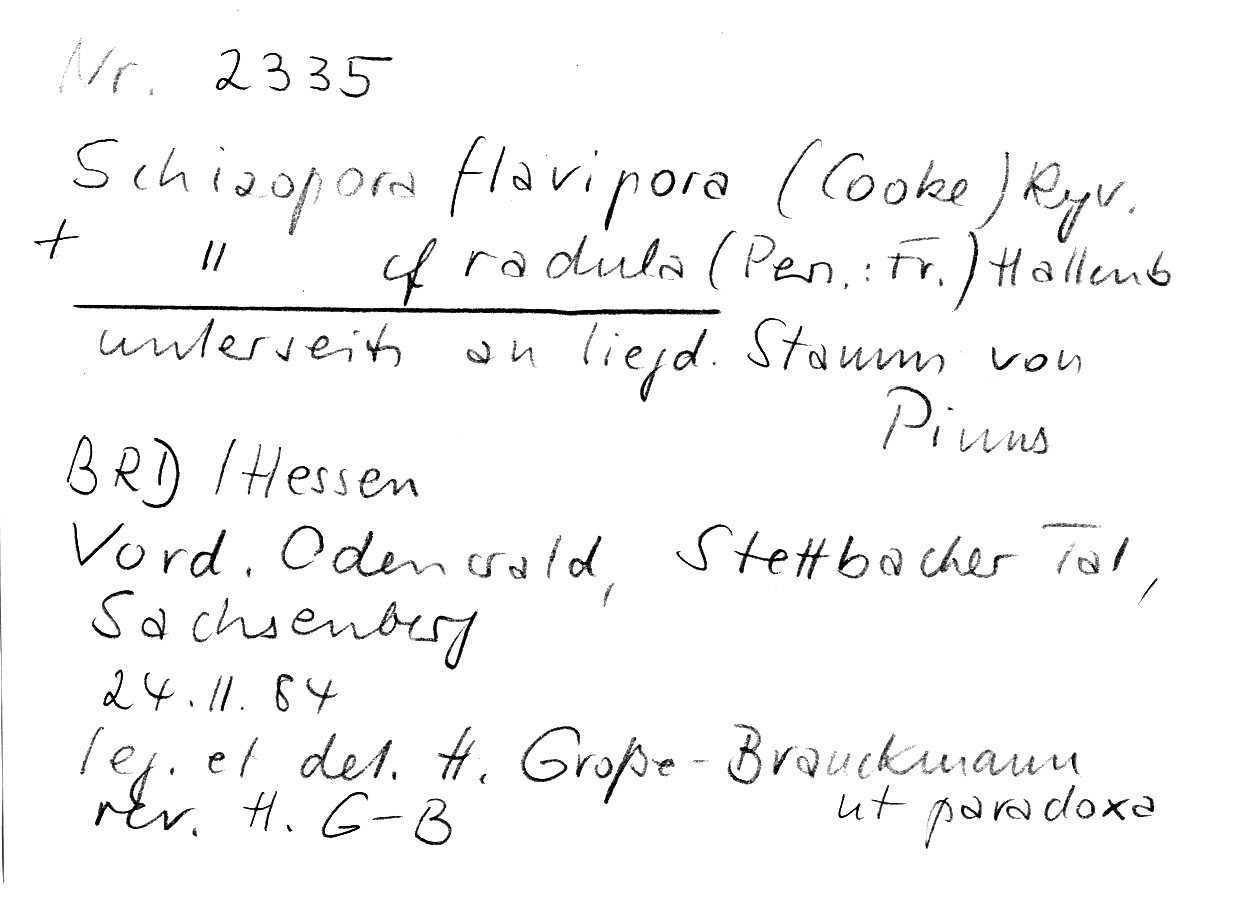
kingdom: Fungi
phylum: Basidiomycota
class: Agaricomycetes
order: Hymenochaetales
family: Schizoporaceae
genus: Xylodon
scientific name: Xylodon raduloides
